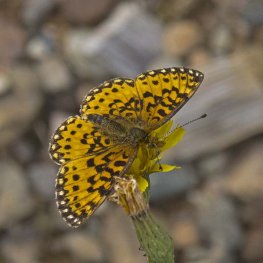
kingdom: Animalia
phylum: Arthropoda
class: Insecta
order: Lepidoptera
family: Nymphalidae
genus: Boloria
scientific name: Boloria selene
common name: Silver-bordered Fritillary
